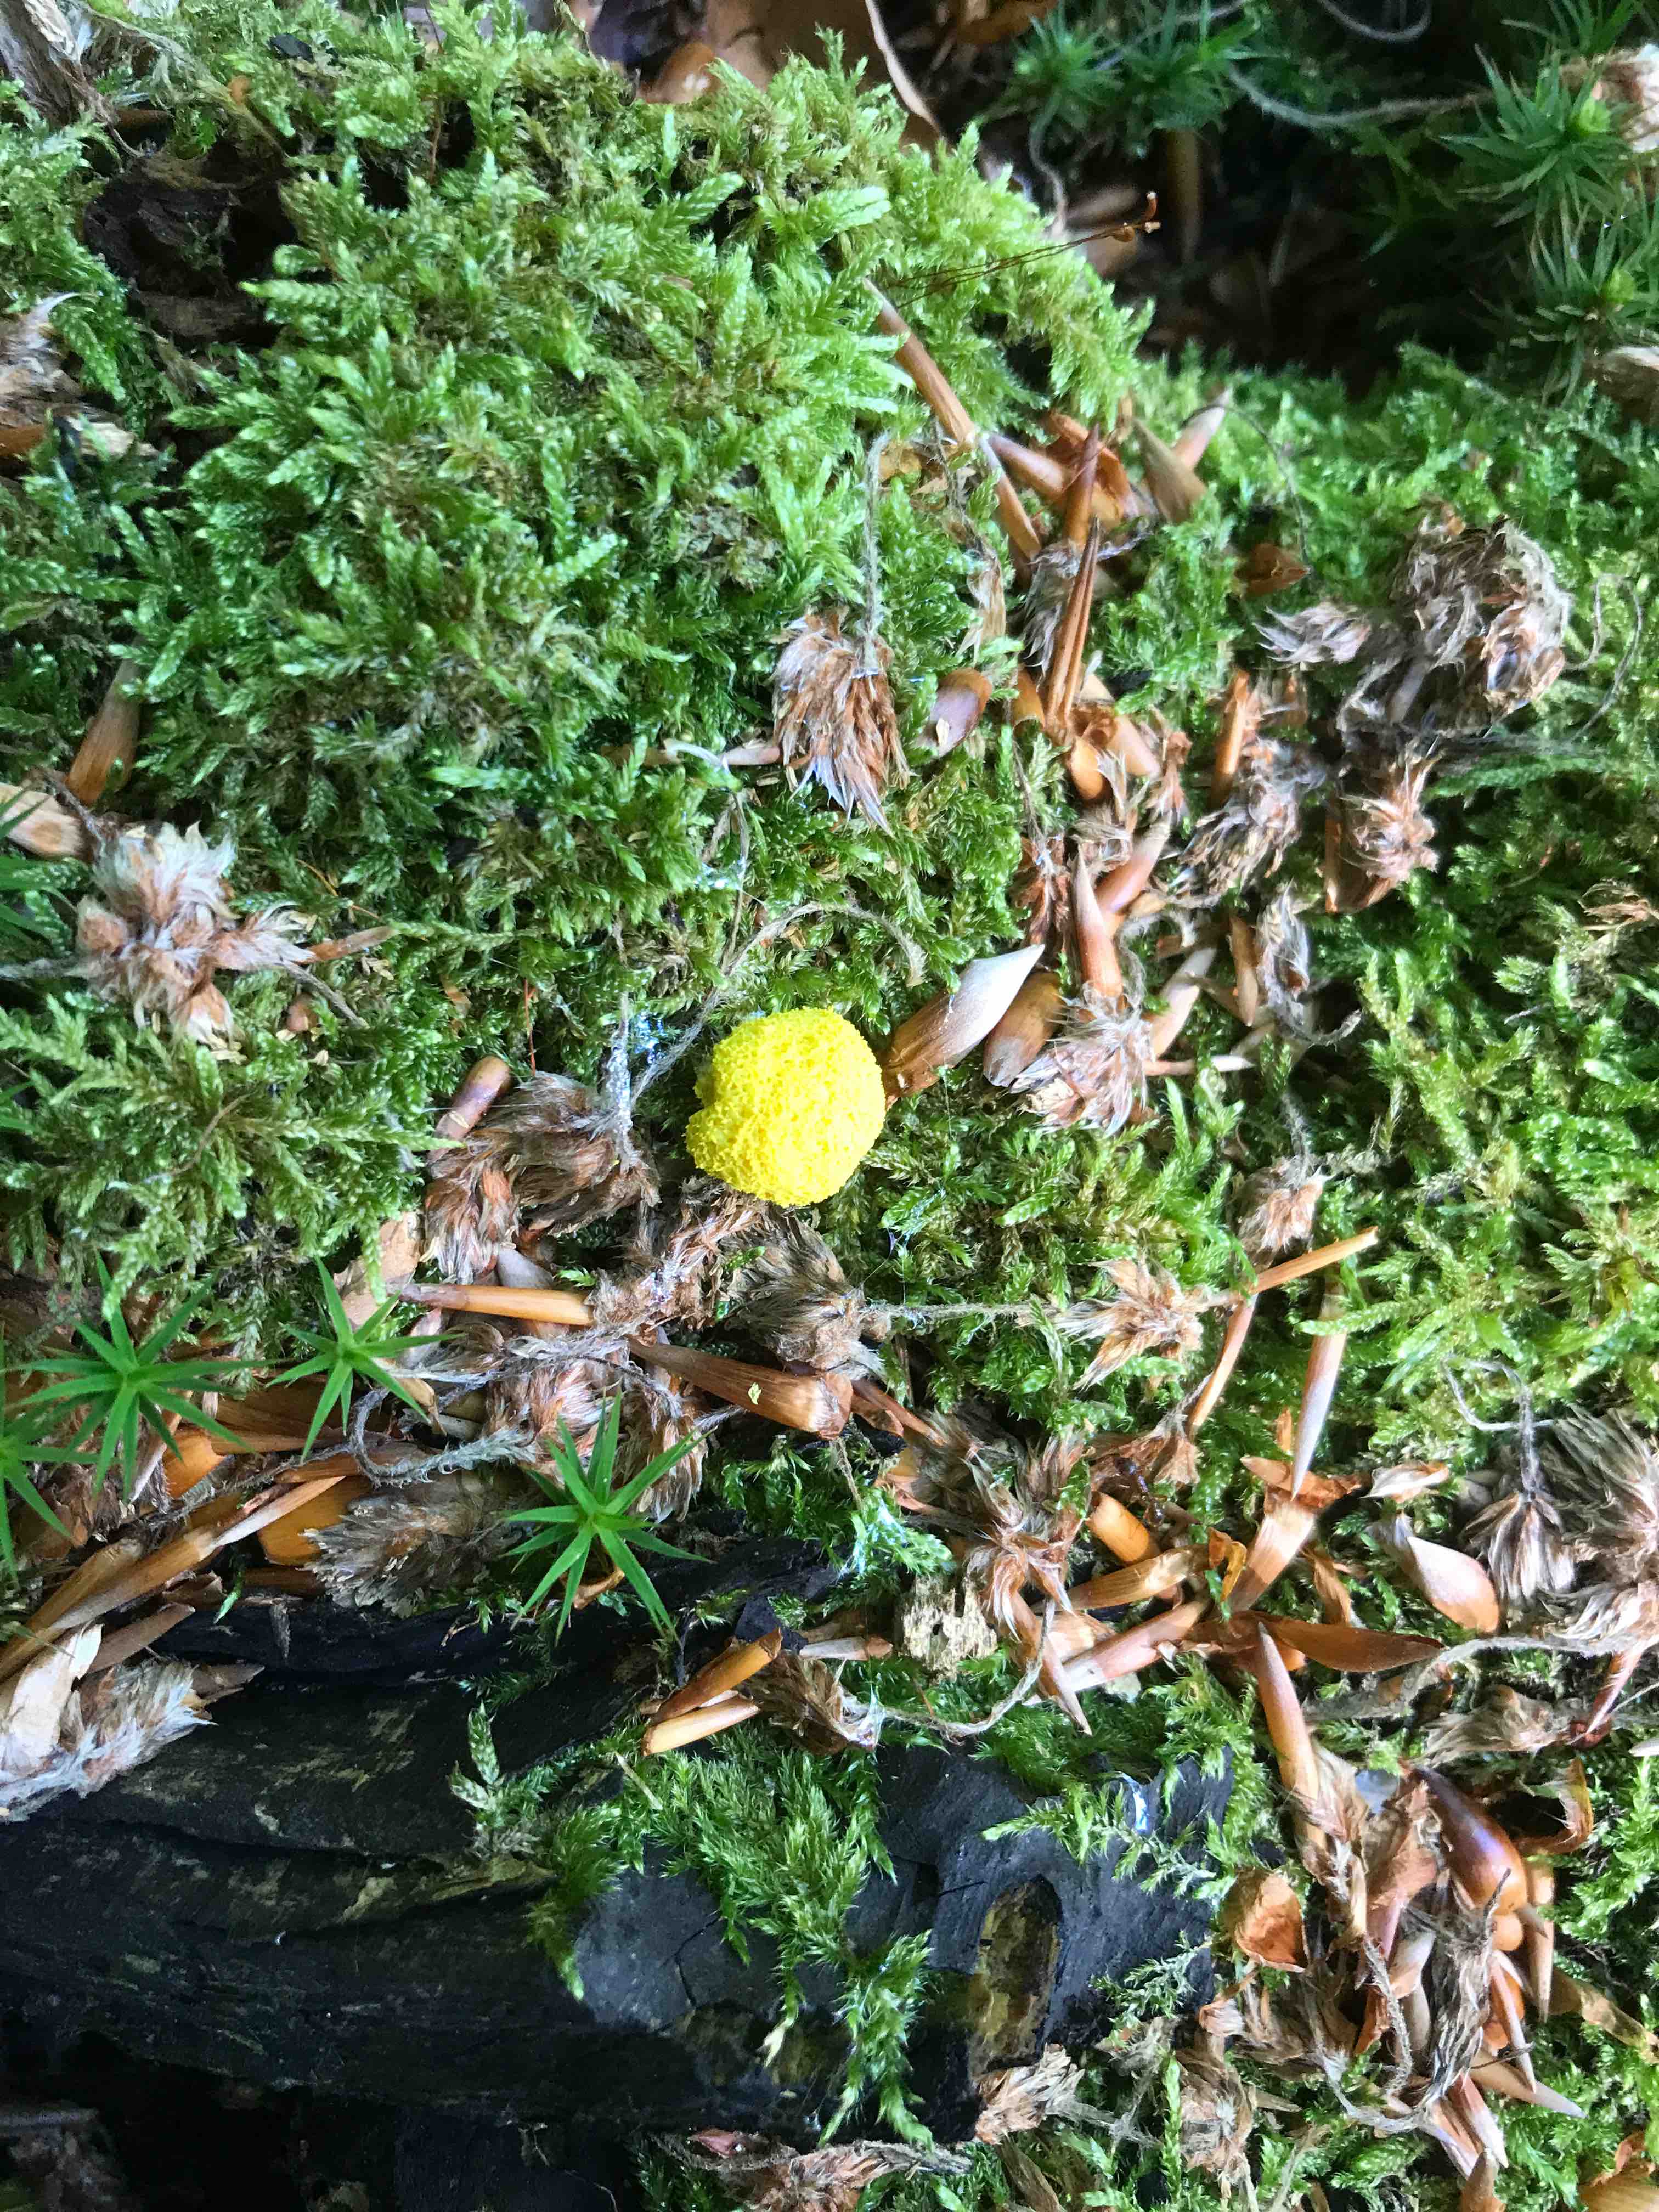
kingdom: Protozoa
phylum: Mycetozoa
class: Myxomycetes
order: Physarales
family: Physaraceae
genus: Fuligo
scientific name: Fuligo septica
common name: gul troldsmør
